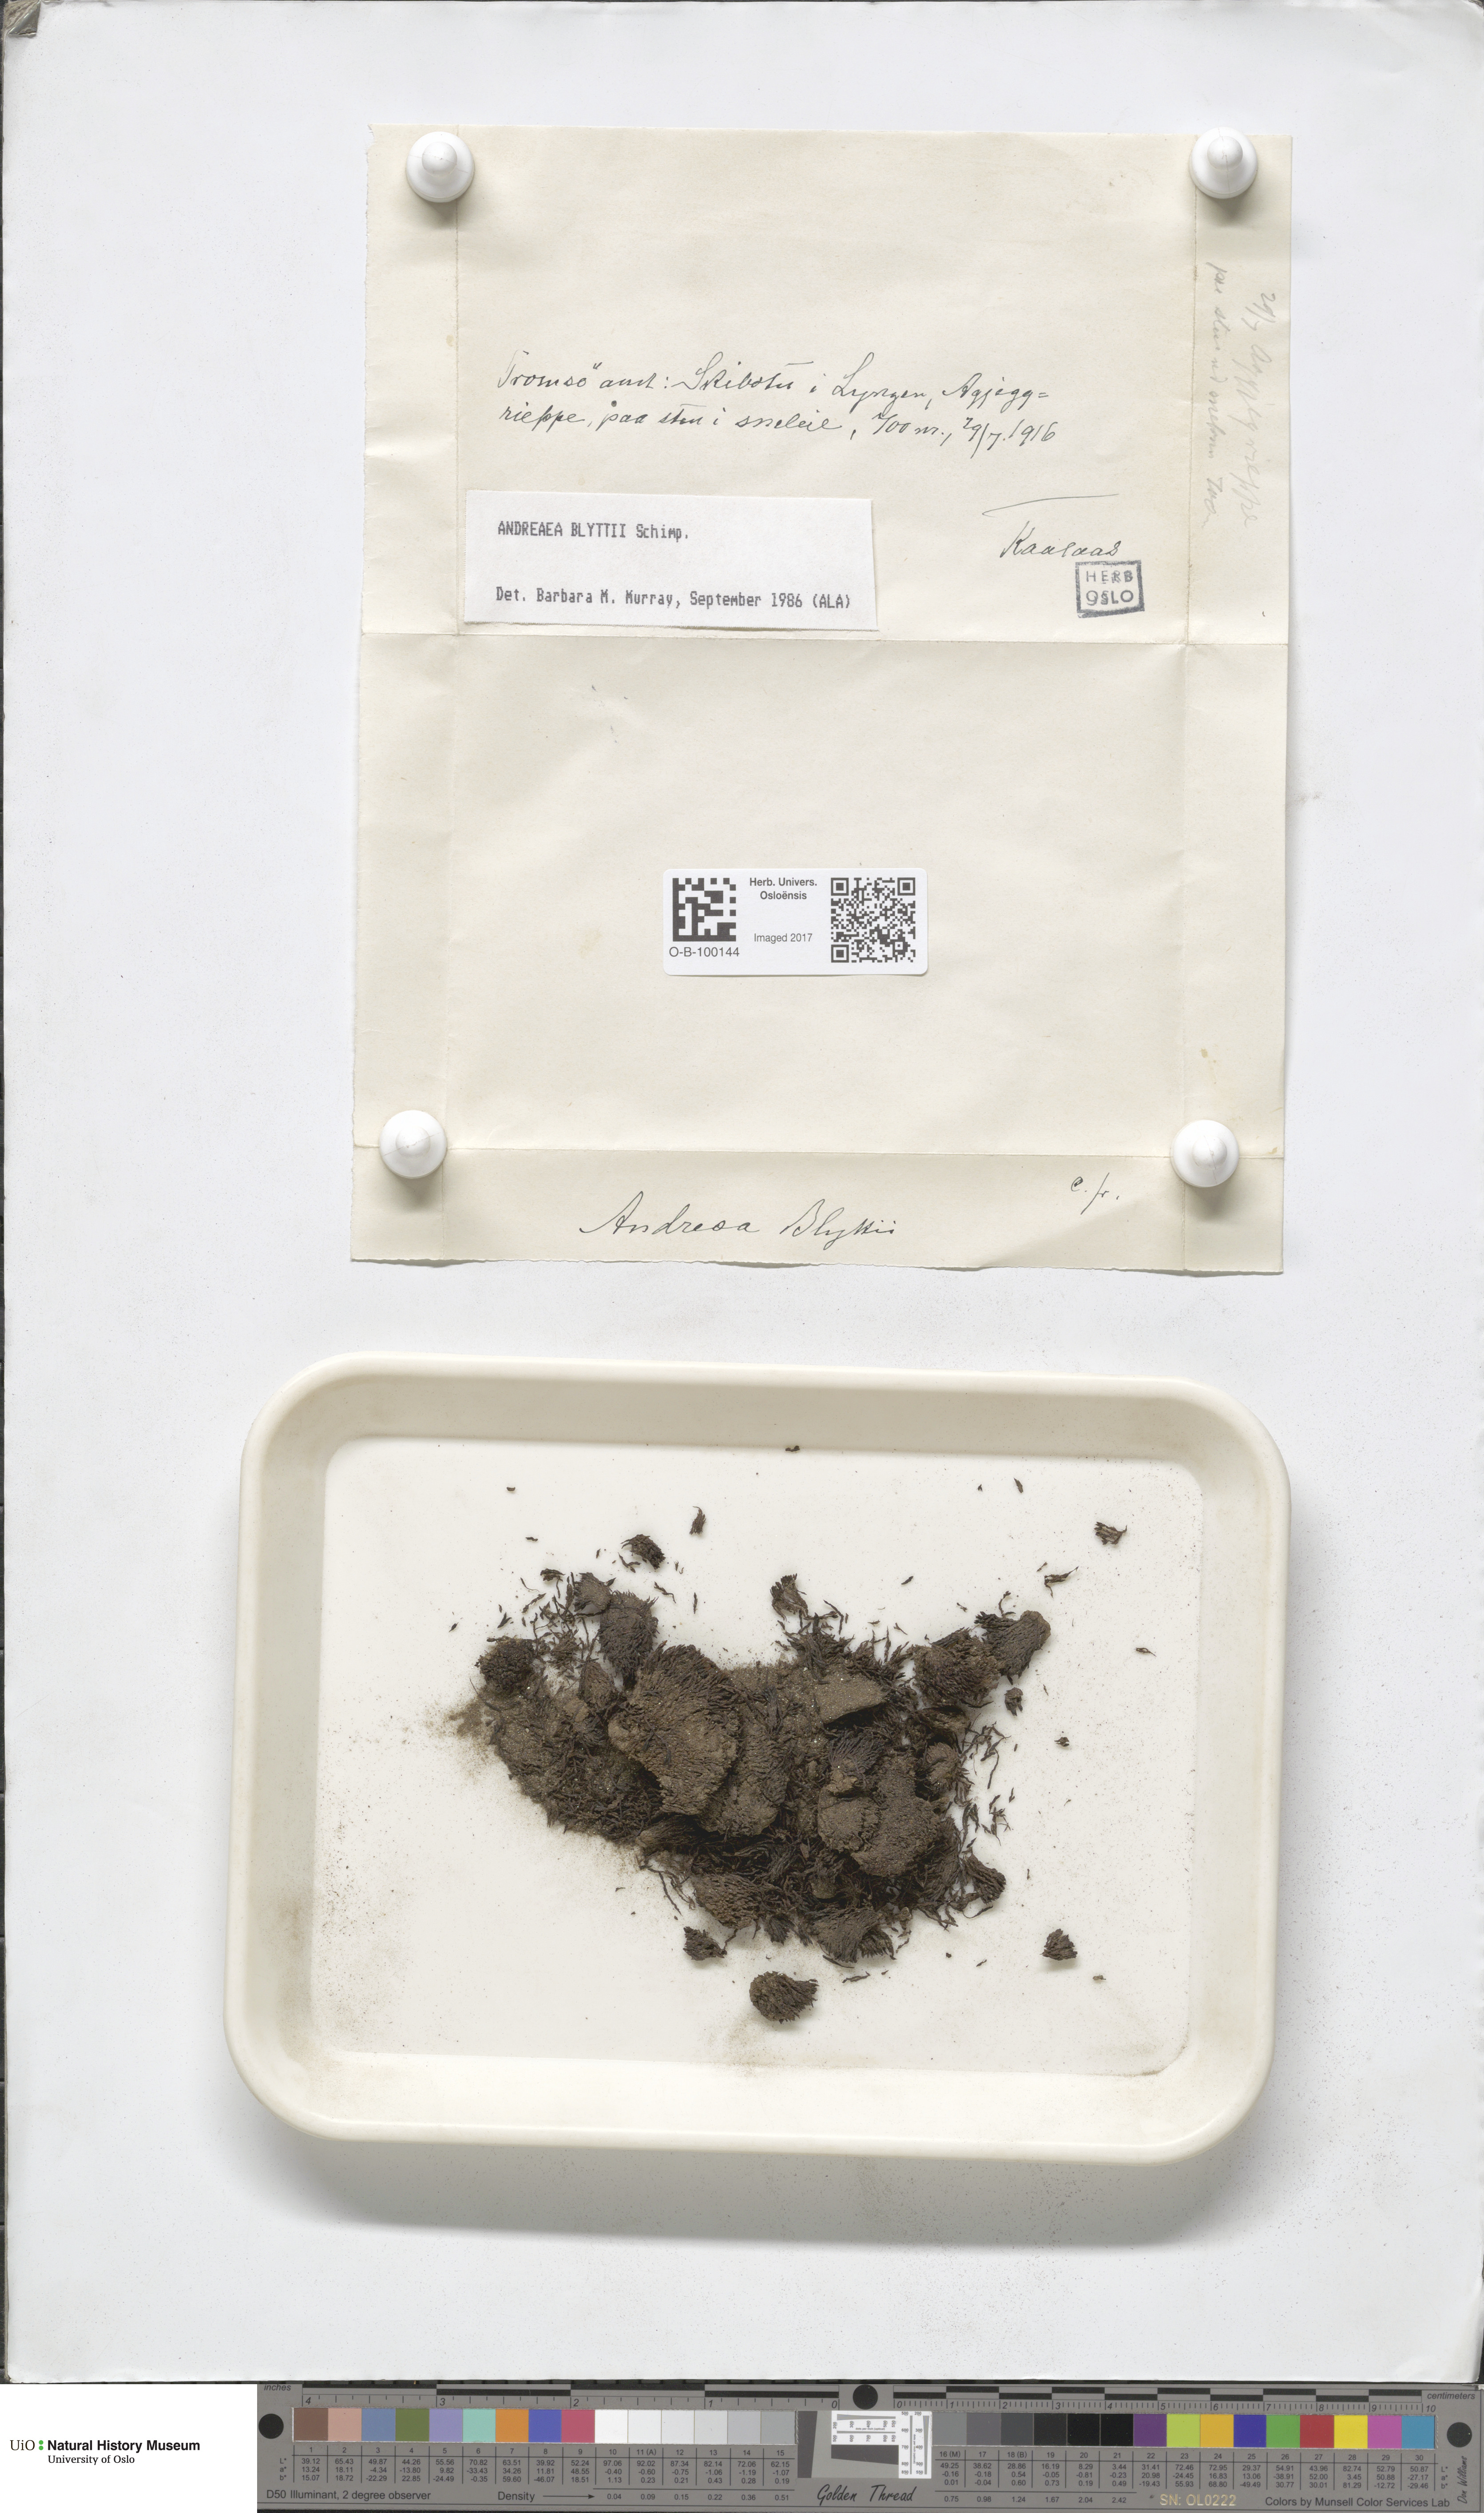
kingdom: Plantae
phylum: Bryophyta
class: Andreaeopsida
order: Andreaeales
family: Andreaeaceae
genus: Andreaea
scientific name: Andreaea blyttii
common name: Blytt's rock moss
